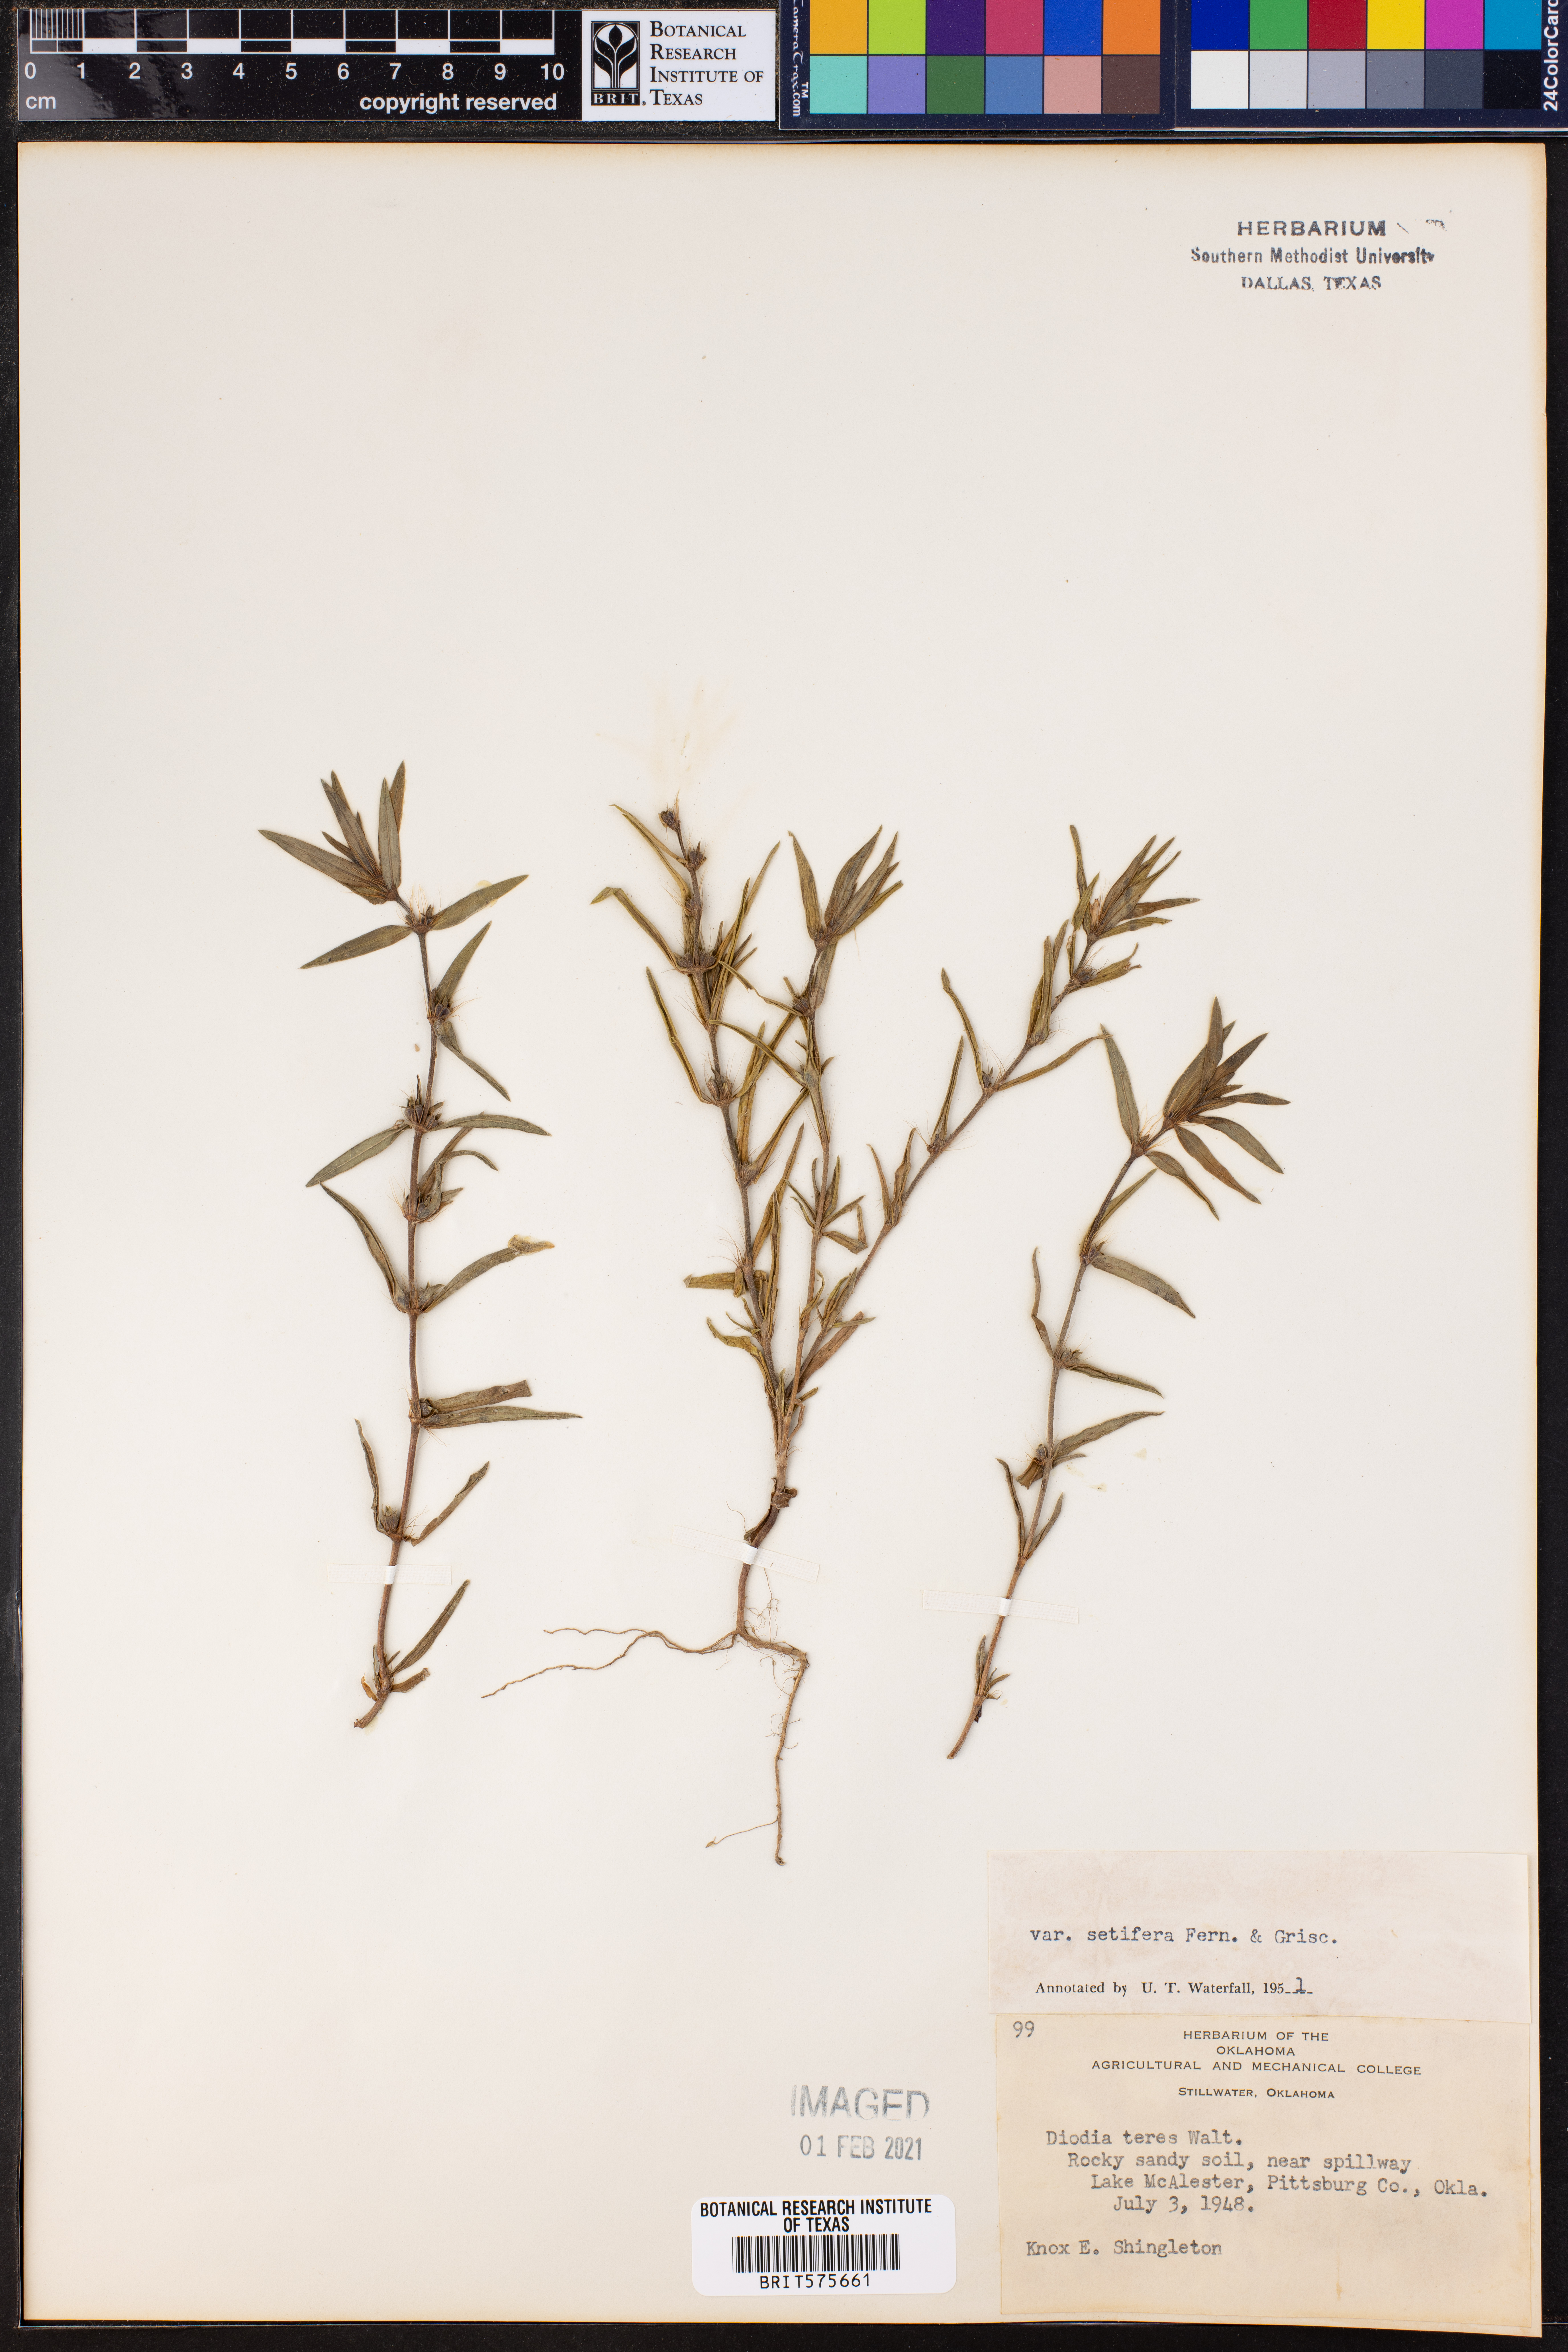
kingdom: Plantae
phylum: Tracheophyta
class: Magnoliopsida
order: Gentianales
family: Rubiaceae
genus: Hexasepalum
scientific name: Hexasepalum teres
